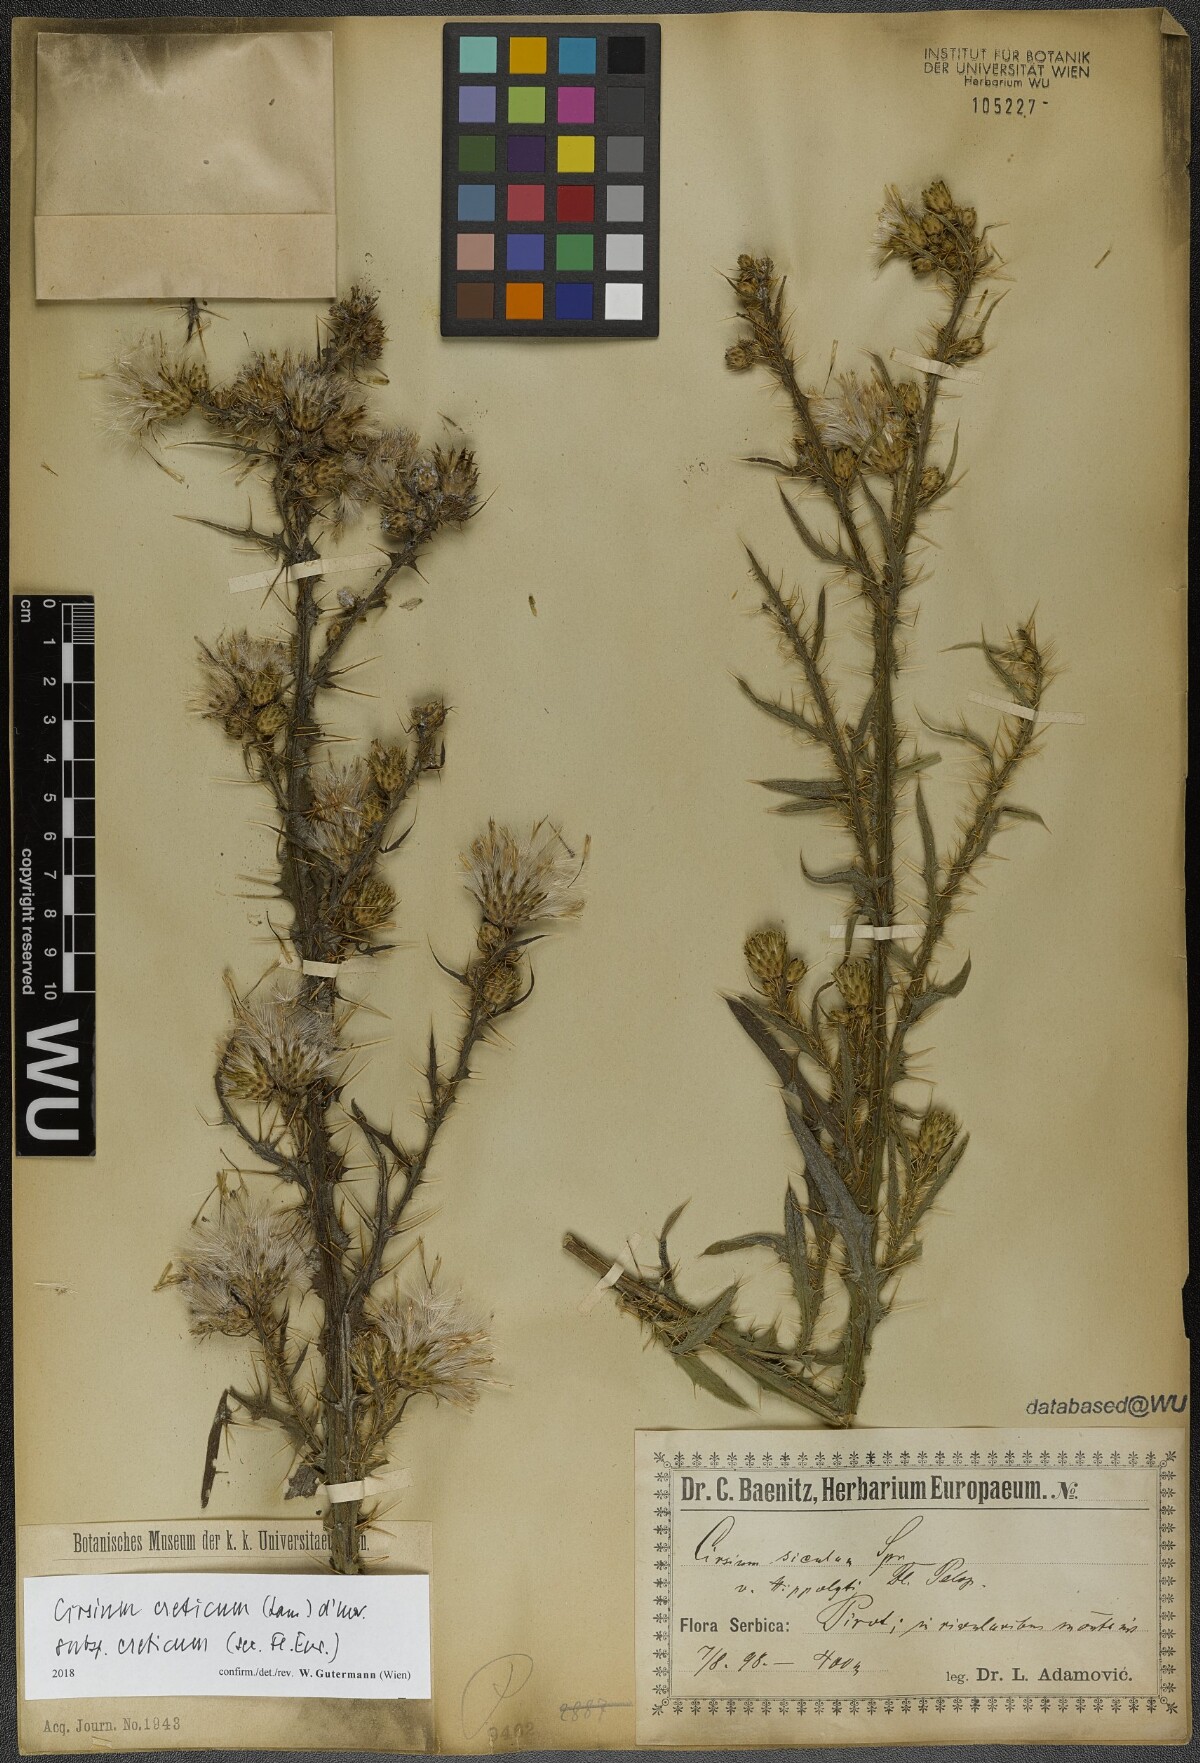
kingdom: Plantae
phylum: Tracheophyta
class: Magnoliopsida
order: Asterales
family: Asteraceae
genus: Cirsium
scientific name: Cirsium creticum
